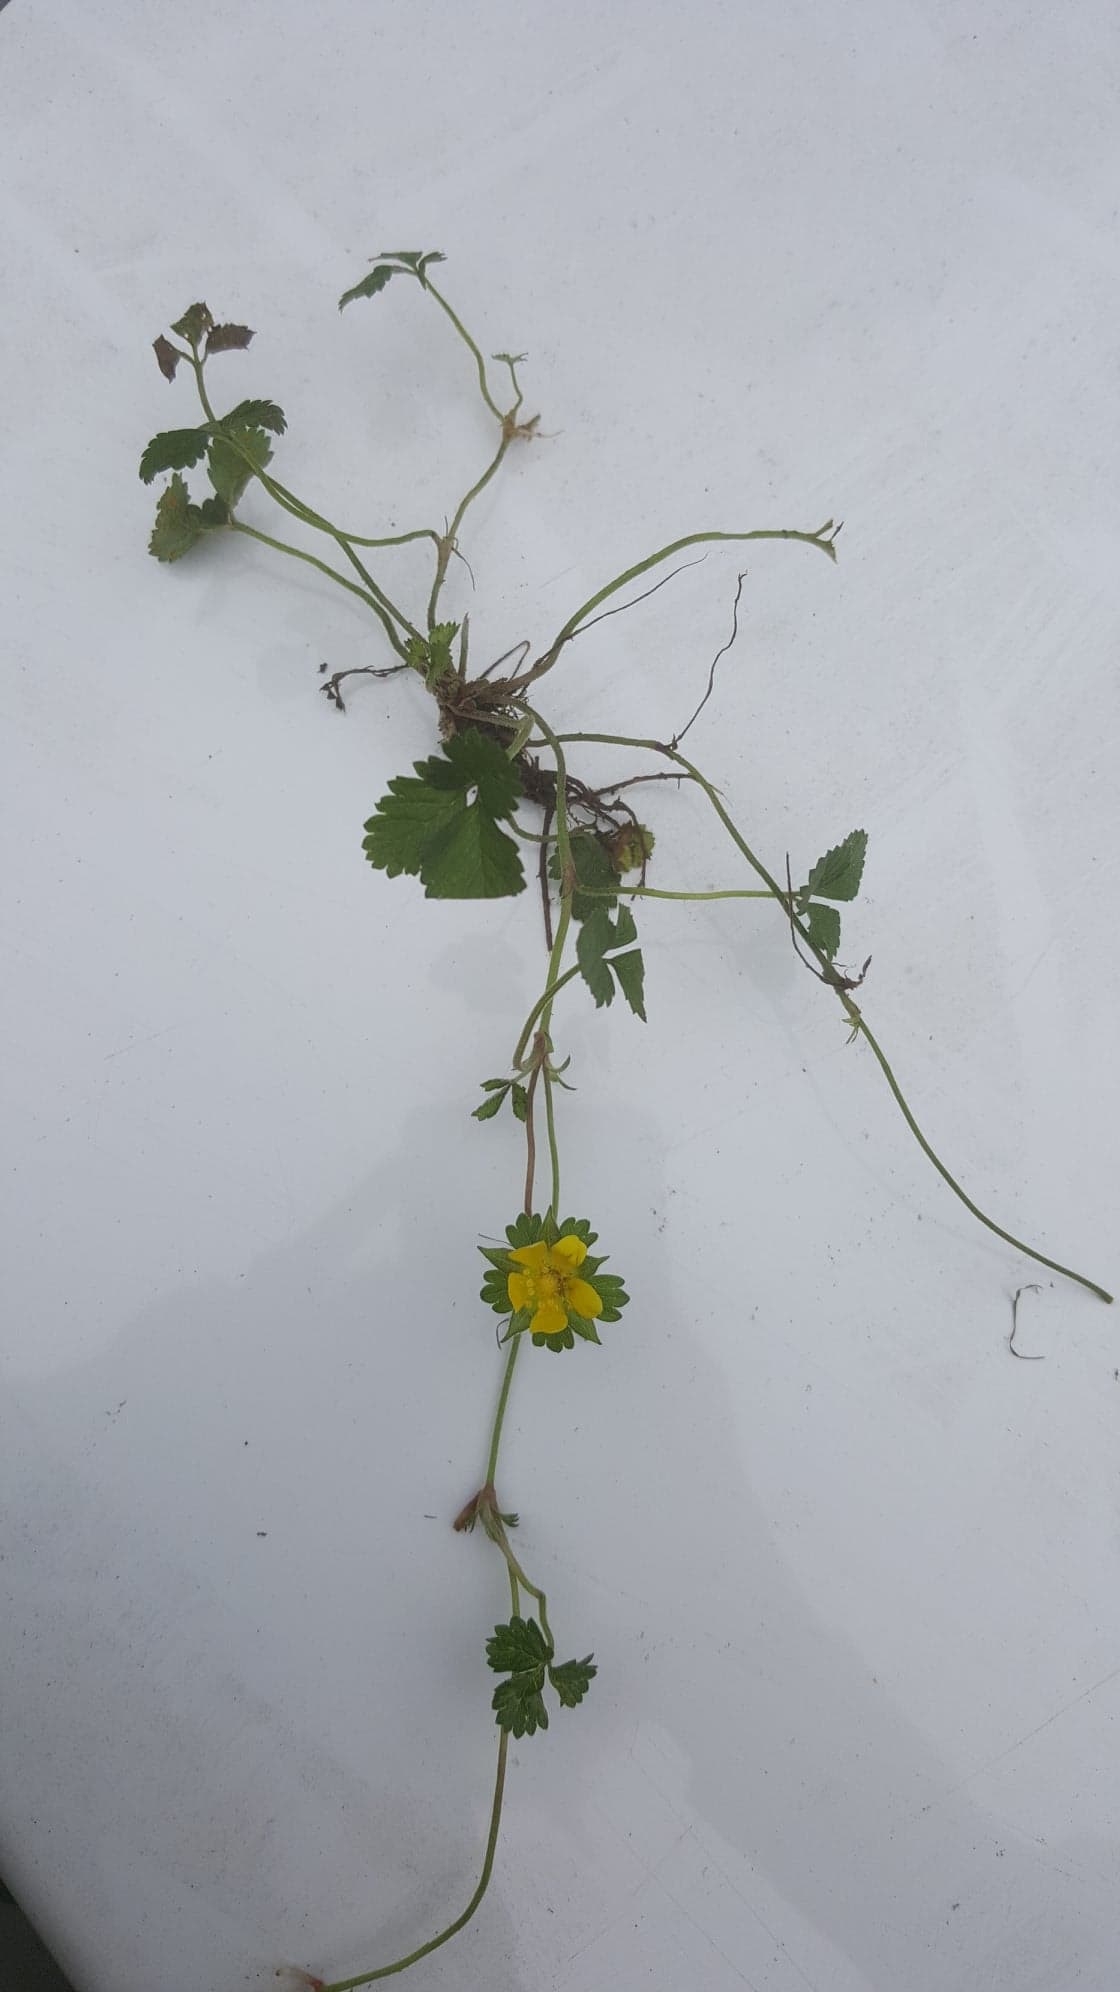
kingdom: Plantae
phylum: Tracheophyta
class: Magnoliopsida
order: Rosales
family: Rosaceae
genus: Potentilla
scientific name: Potentilla indica
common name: Indian-strawberry
